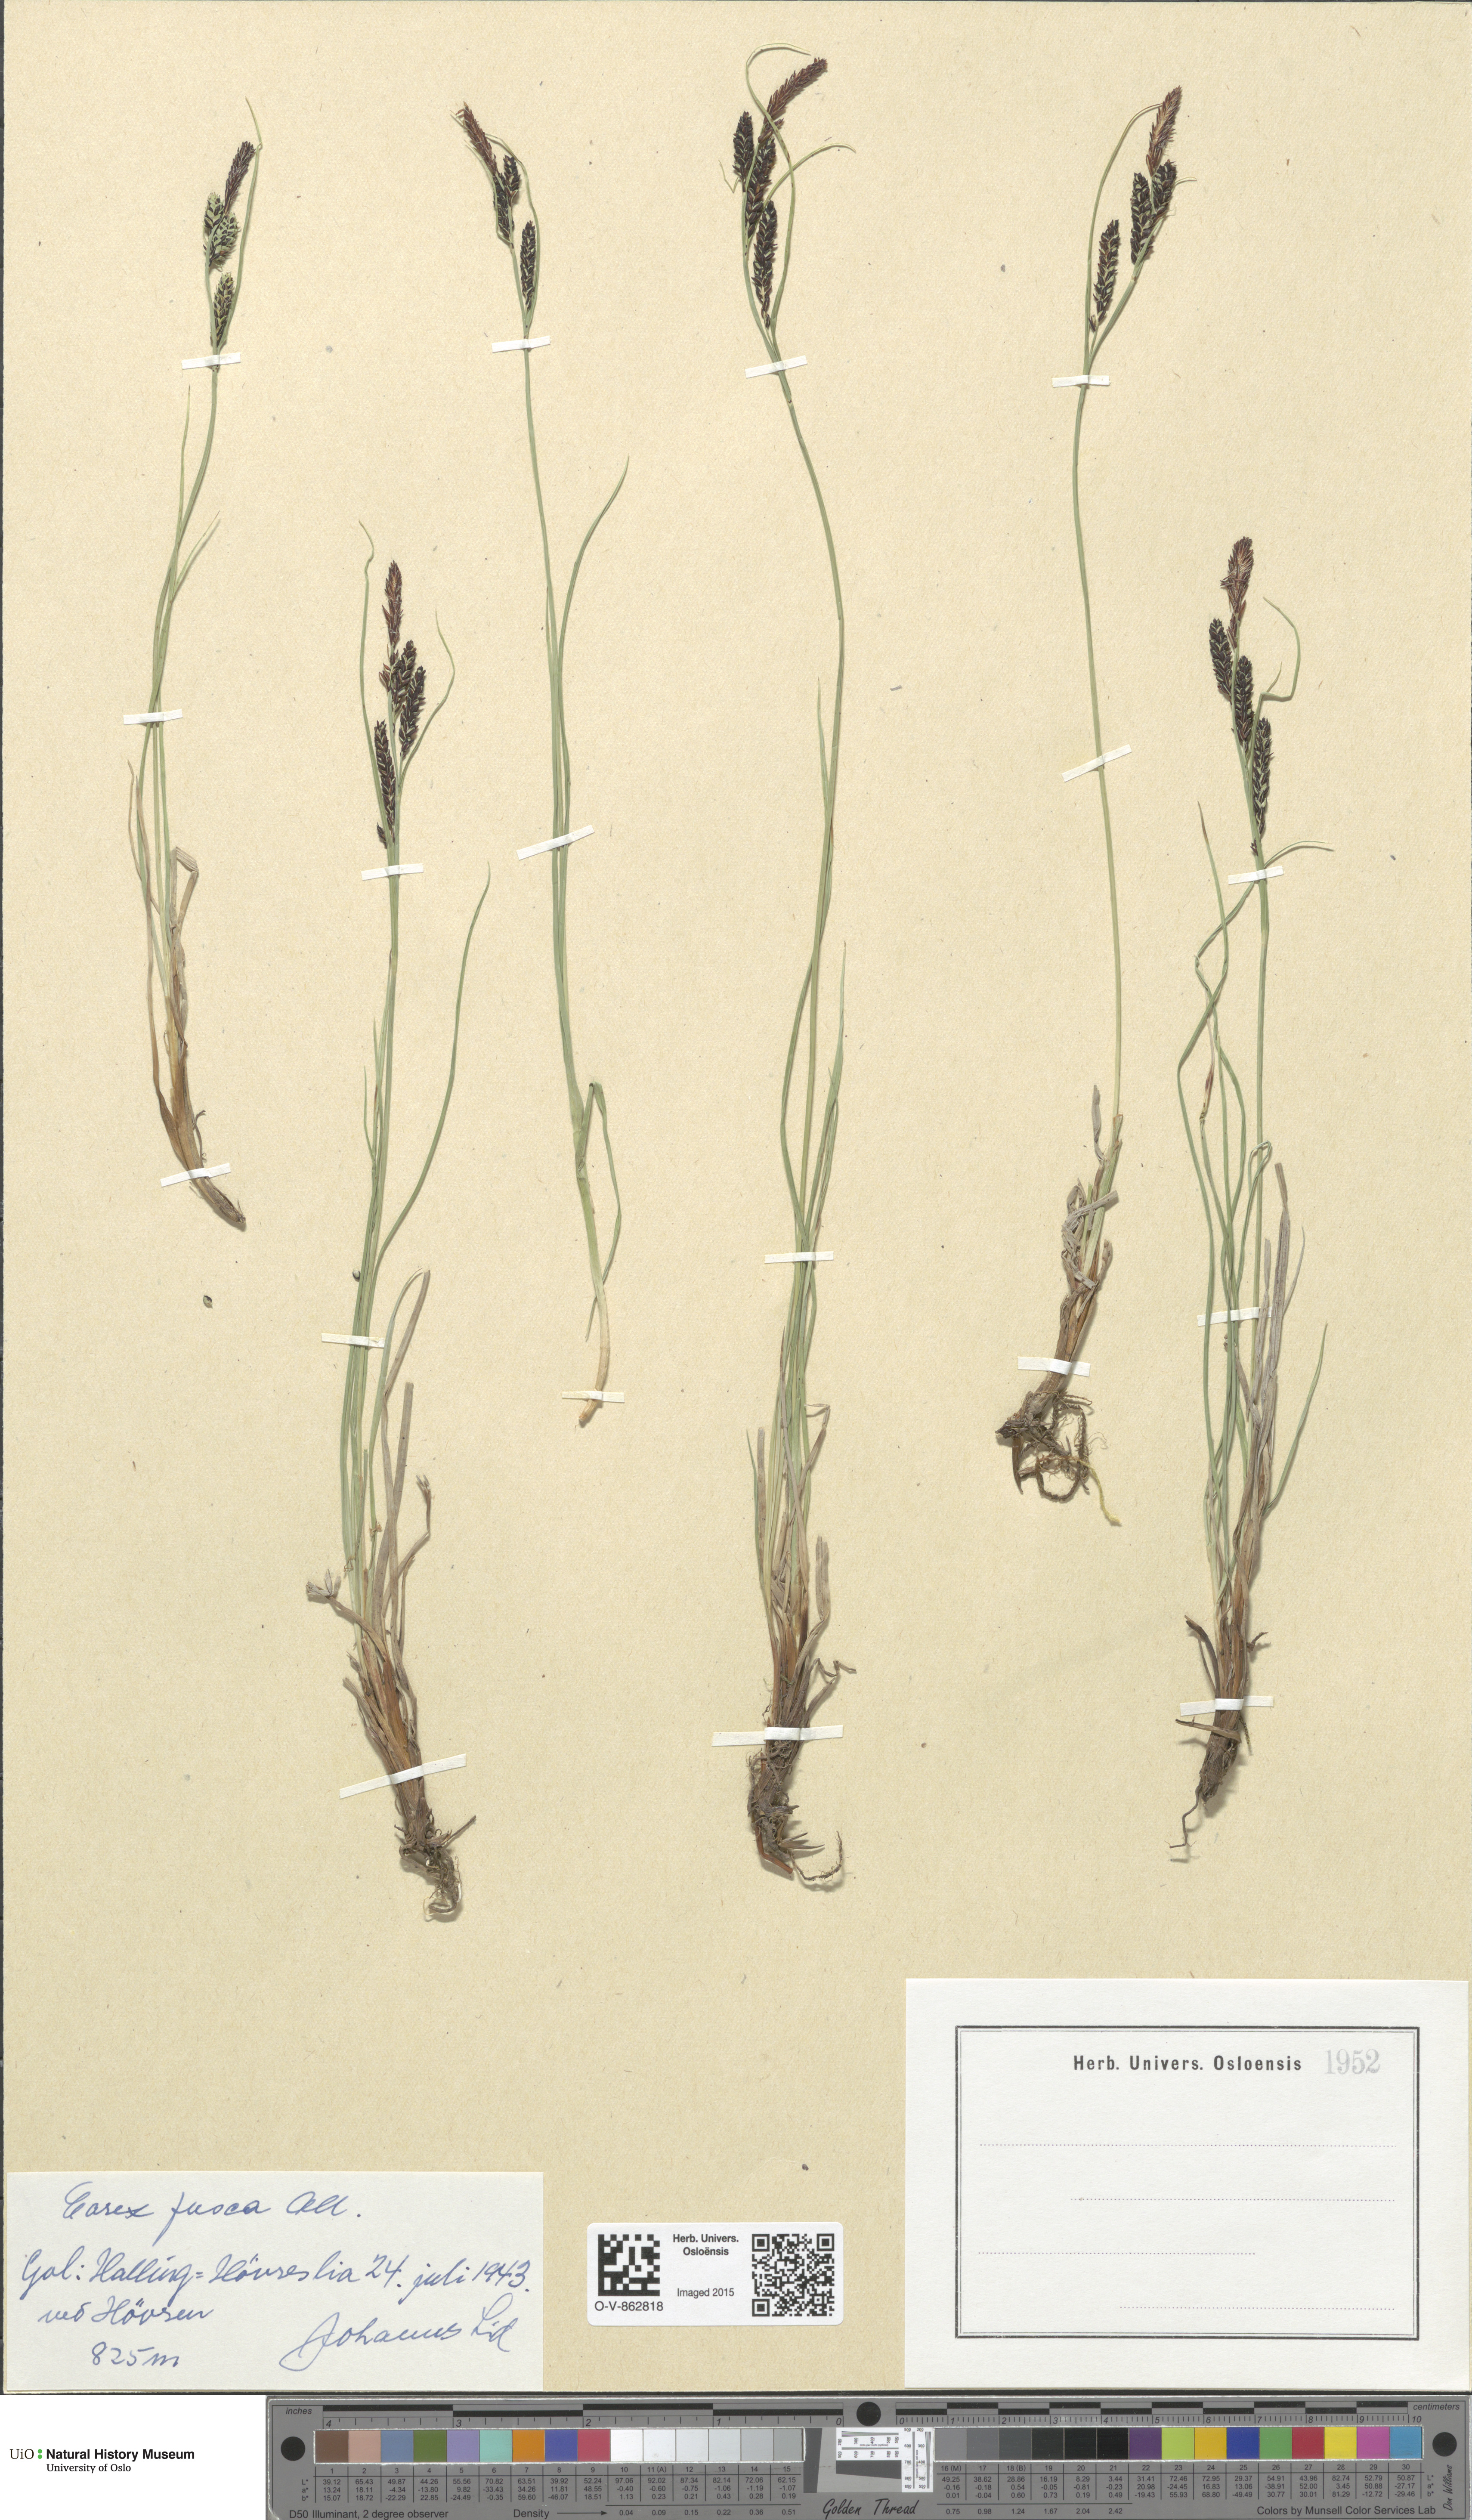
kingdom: Plantae
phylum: Tracheophyta
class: Liliopsida
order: Poales
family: Cyperaceae
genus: Carex
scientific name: Carex nigra
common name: Common sedge
